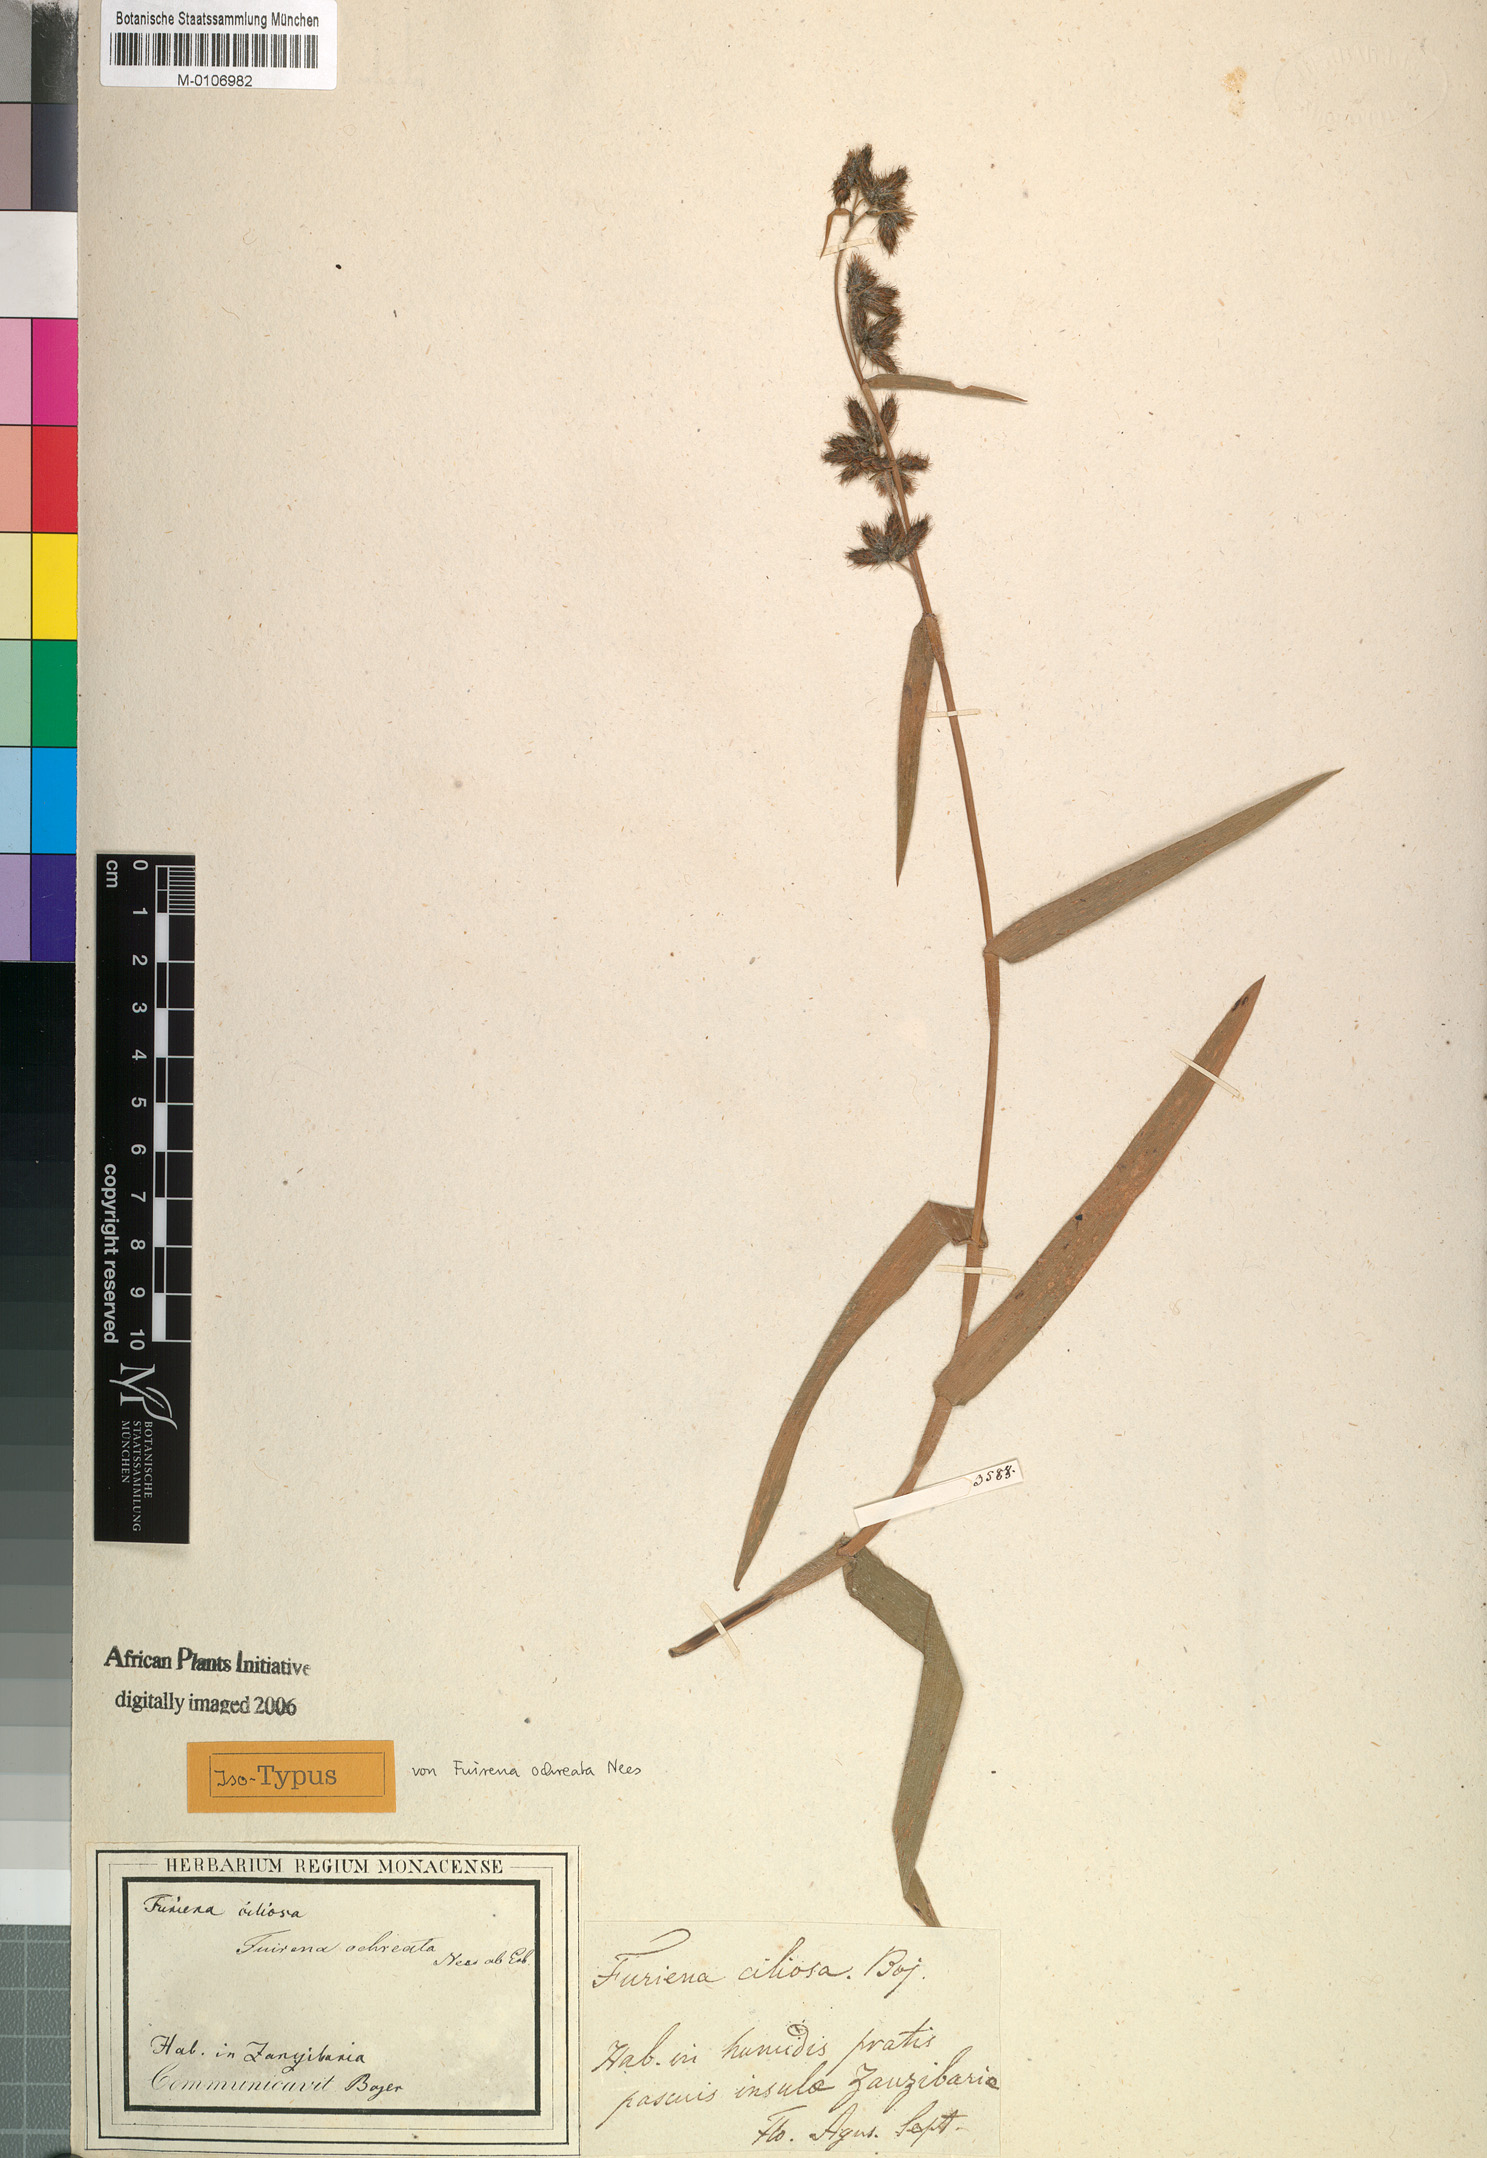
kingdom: Plantae
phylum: Tracheophyta
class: Liliopsida
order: Poales
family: Cyperaceae
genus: Fuirena
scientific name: Fuirena umbellata
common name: Yefen
